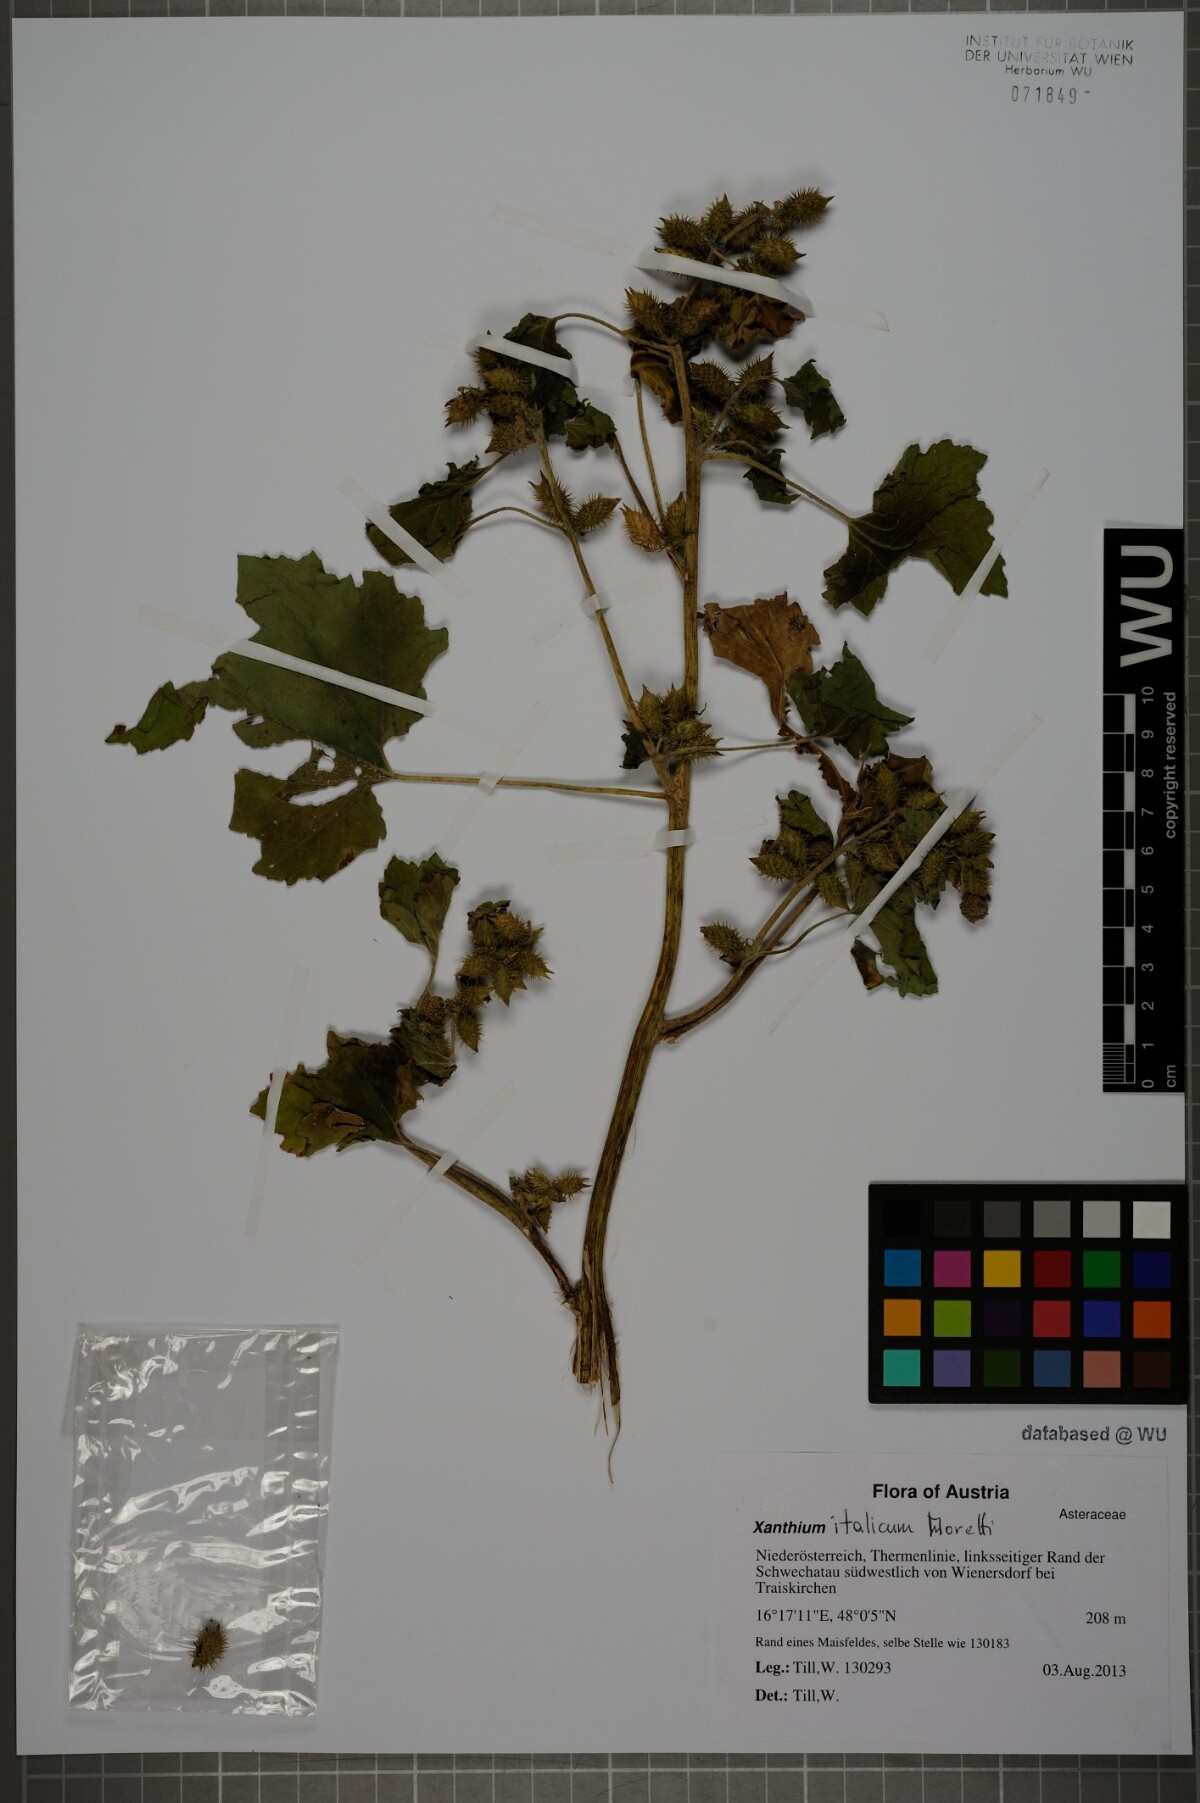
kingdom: Plantae
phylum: Tracheophyta
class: Magnoliopsida
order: Asterales
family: Asteraceae
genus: Xanthium
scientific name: Xanthium orientale
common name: Californian burr
